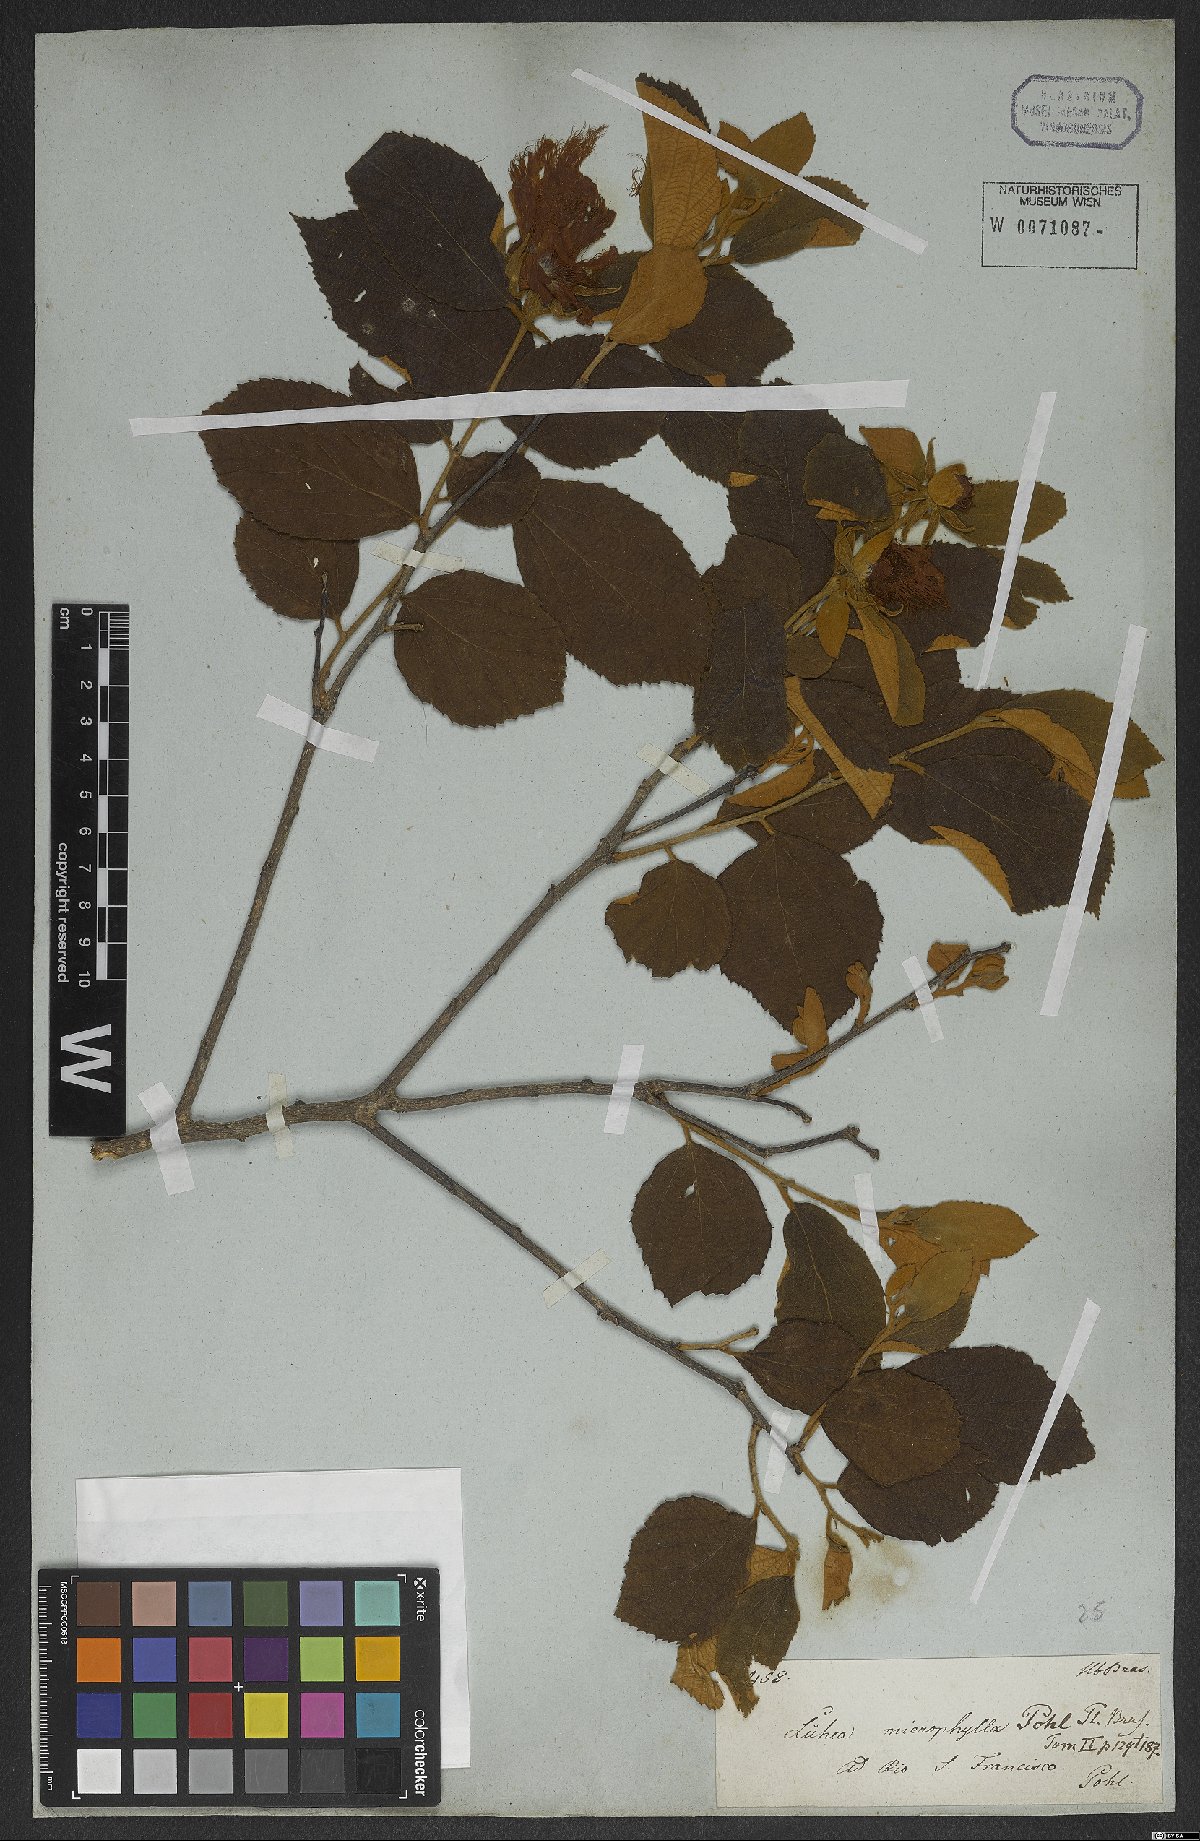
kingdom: Plantae
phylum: Tracheophyta
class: Magnoliopsida
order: Malvales
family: Malvaceae
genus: Luehea
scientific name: Luehea candicans
